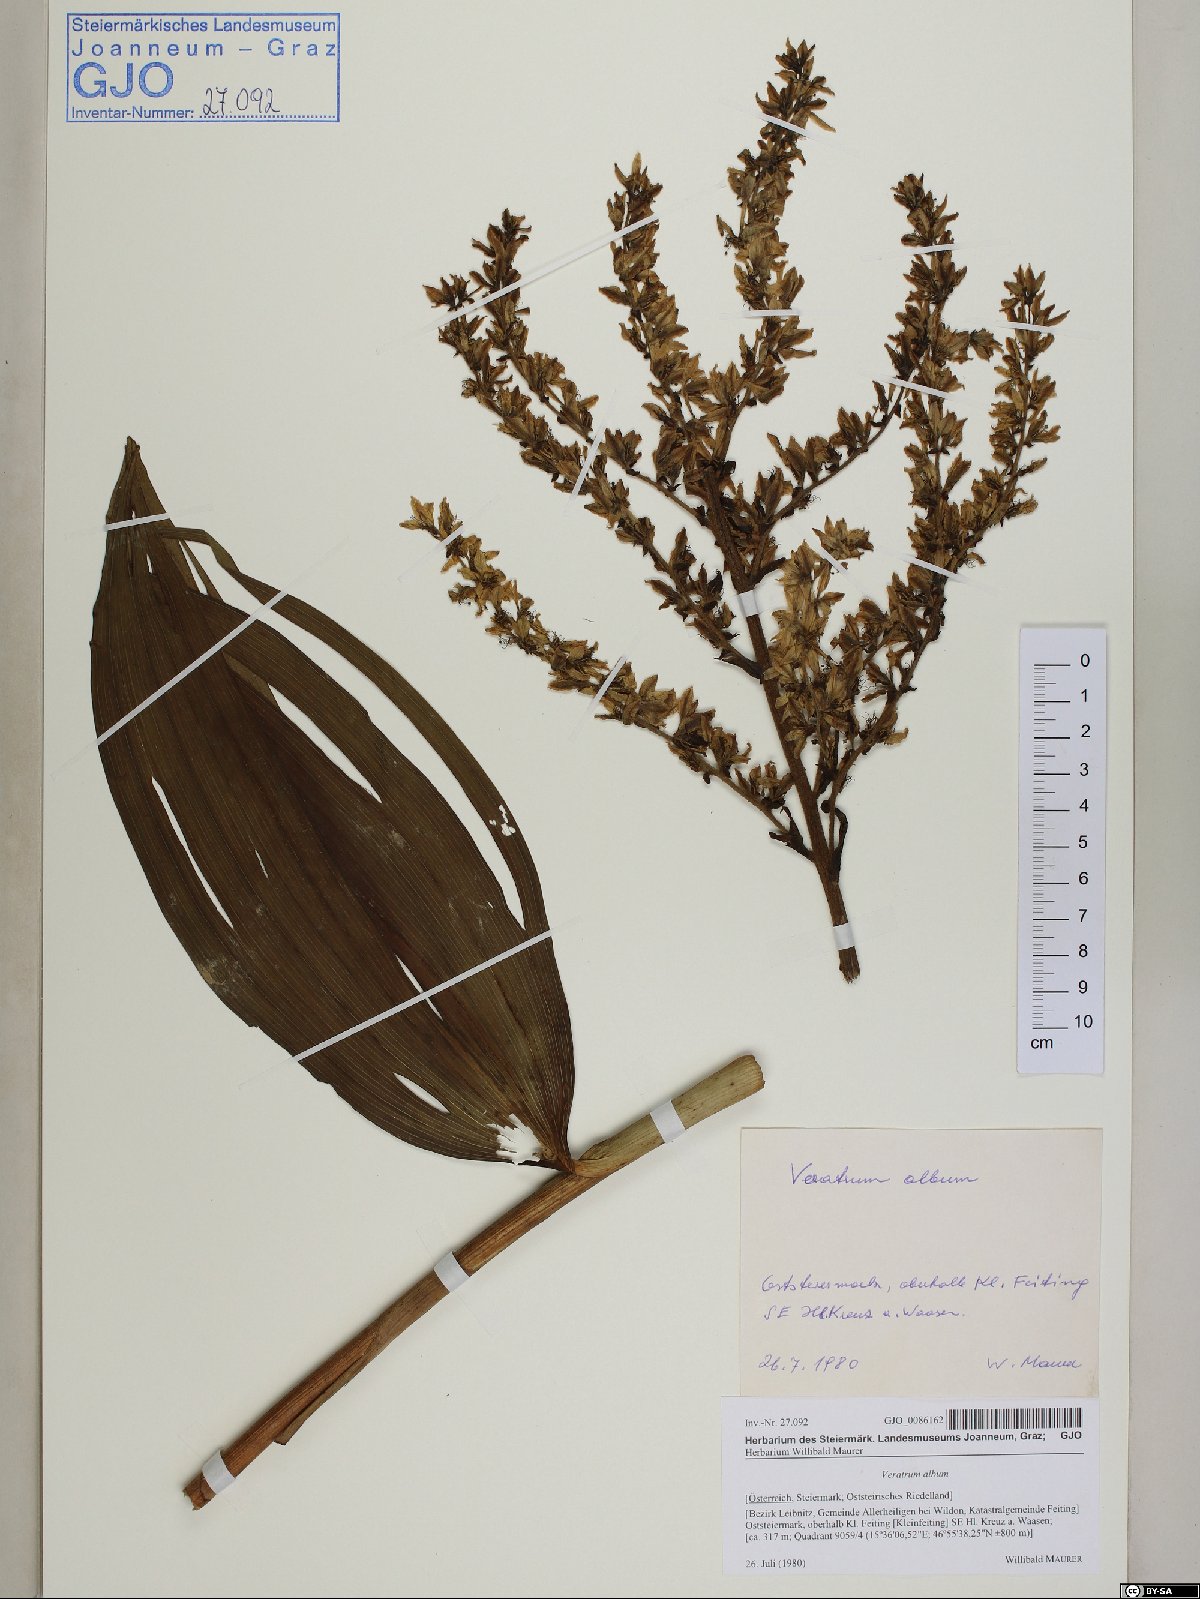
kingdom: Plantae
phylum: Tracheophyta
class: Liliopsida
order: Liliales
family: Melanthiaceae
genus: Veratrum
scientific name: Veratrum album
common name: White veratrum
